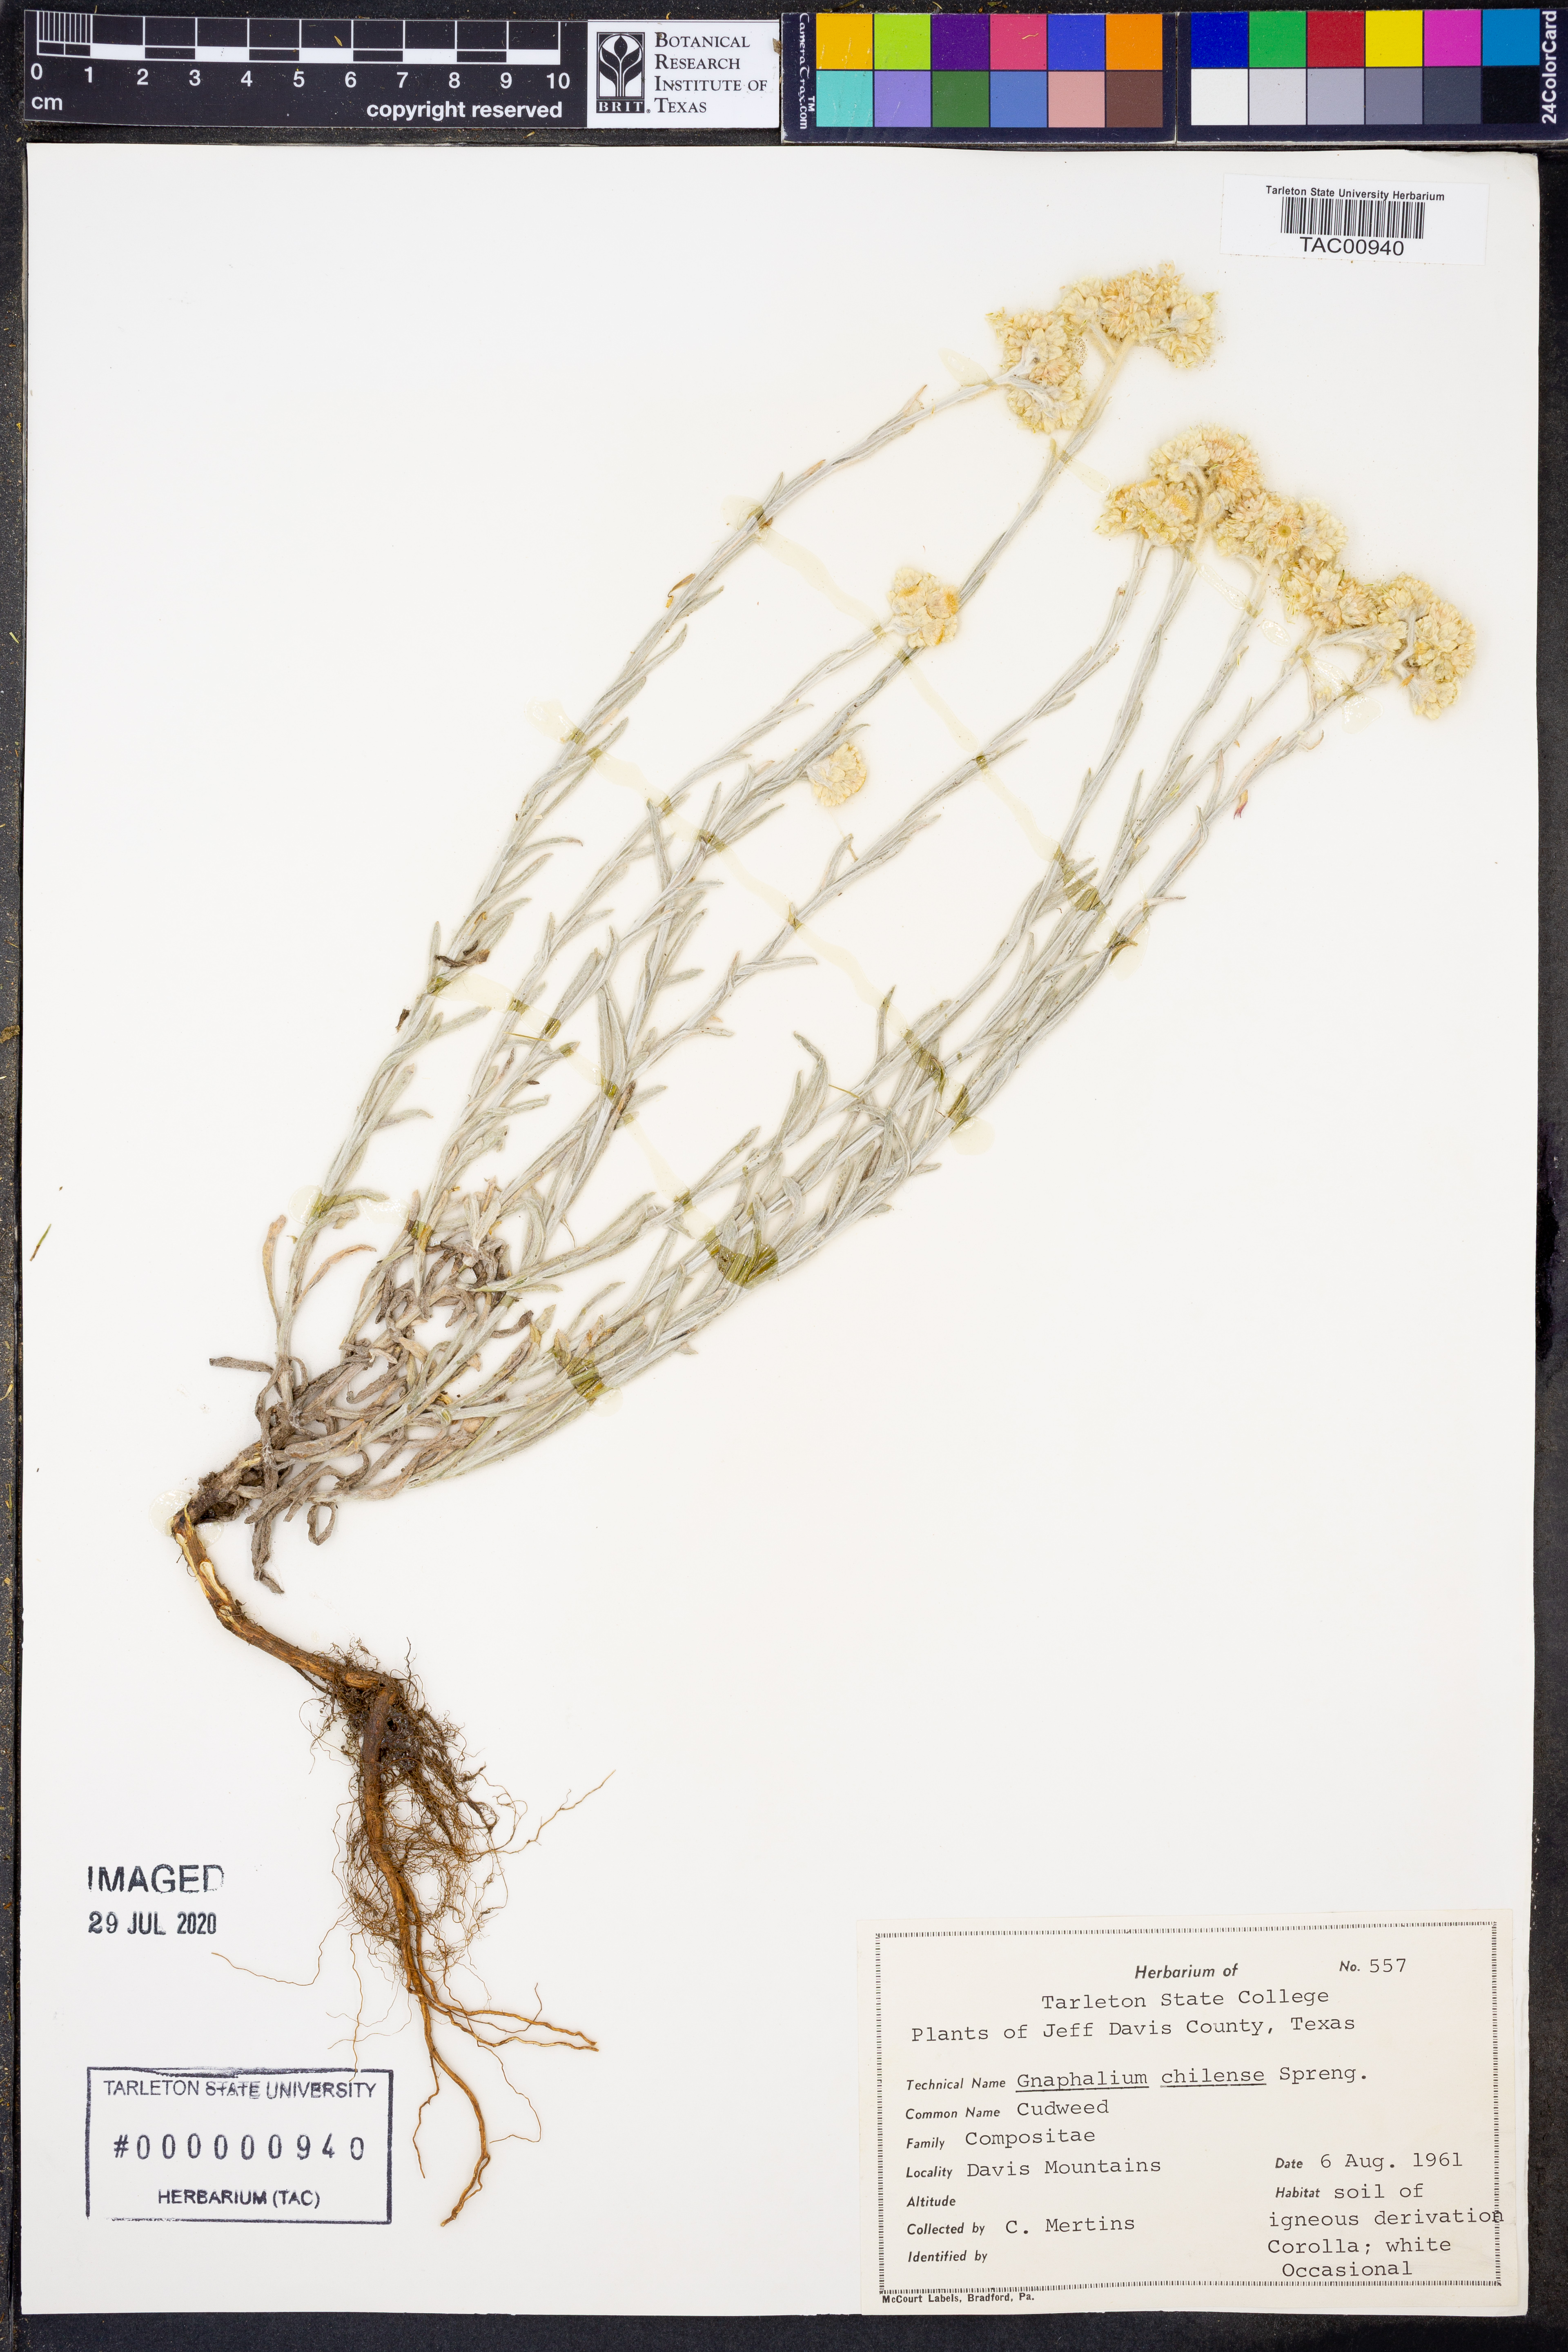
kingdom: Plantae
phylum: Tracheophyta
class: Magnoliopsida
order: Asterales
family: Asteraceae
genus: Pseudognaphalium
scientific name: Pseudognaphalium montevidense
